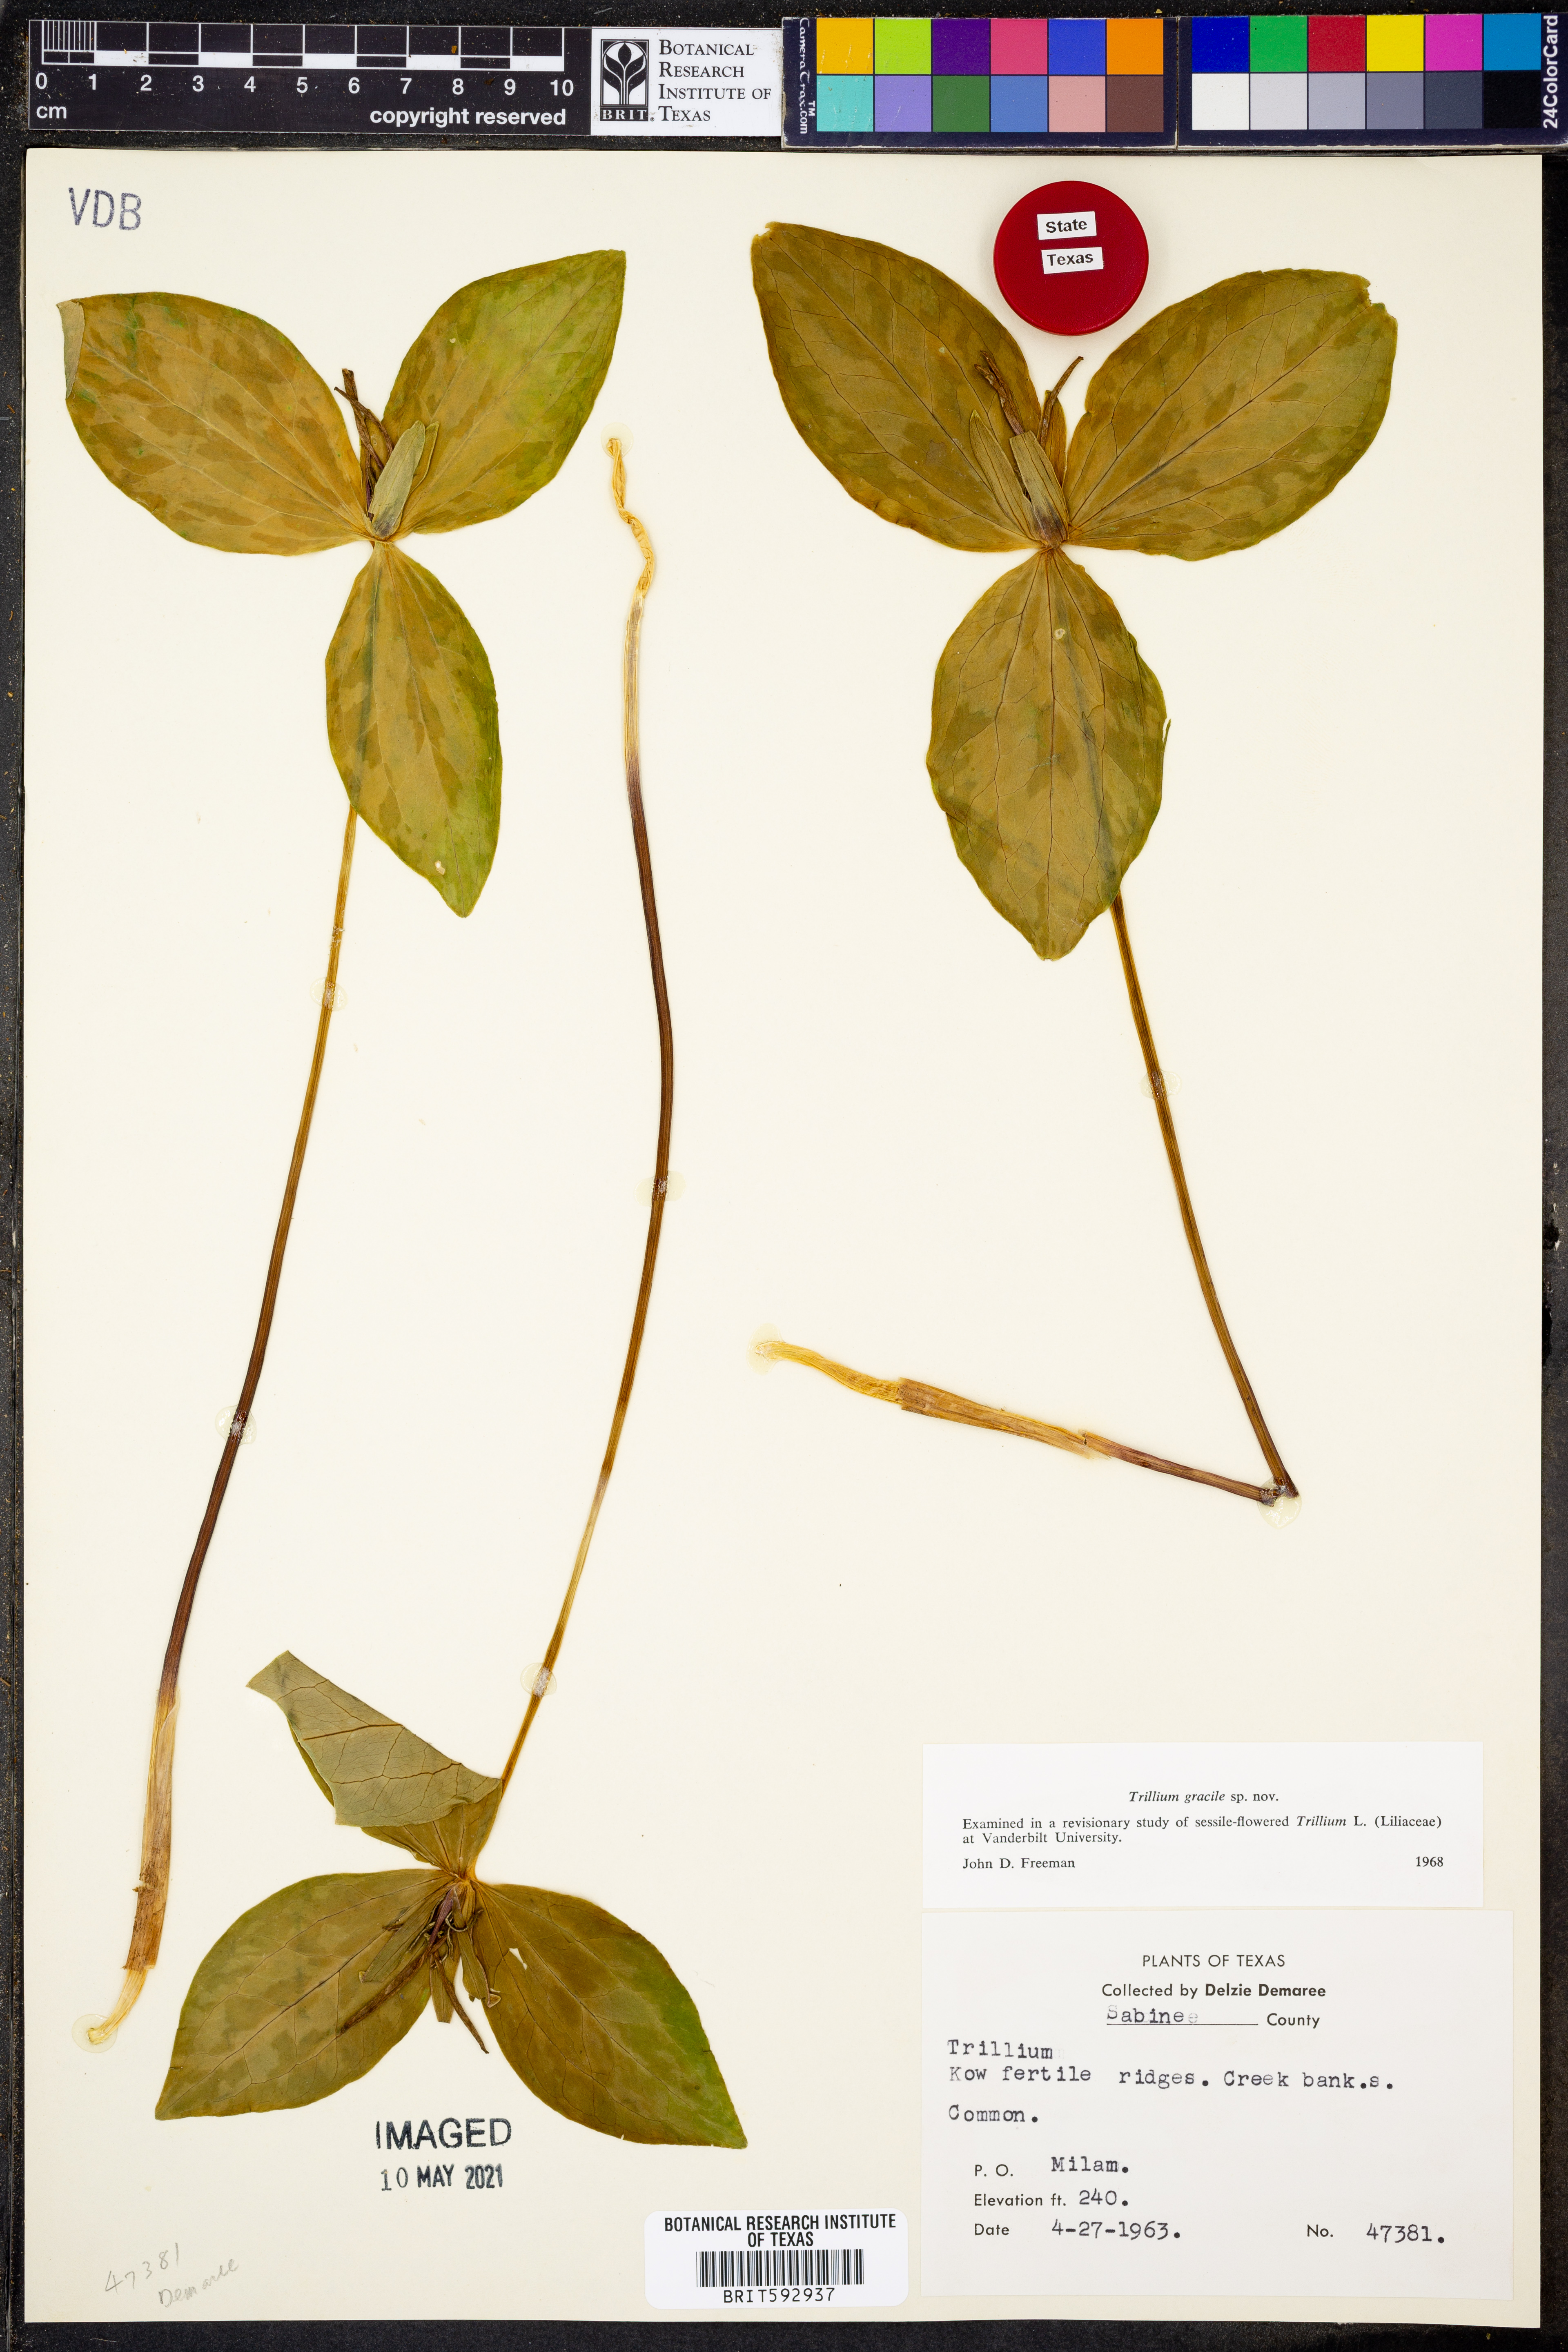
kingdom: Plantae
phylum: Tracheophyta
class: Liliopsida
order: Liliales
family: Melanthiaceae
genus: Trillium
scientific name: Trillium gracile
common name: Graceful trillium
